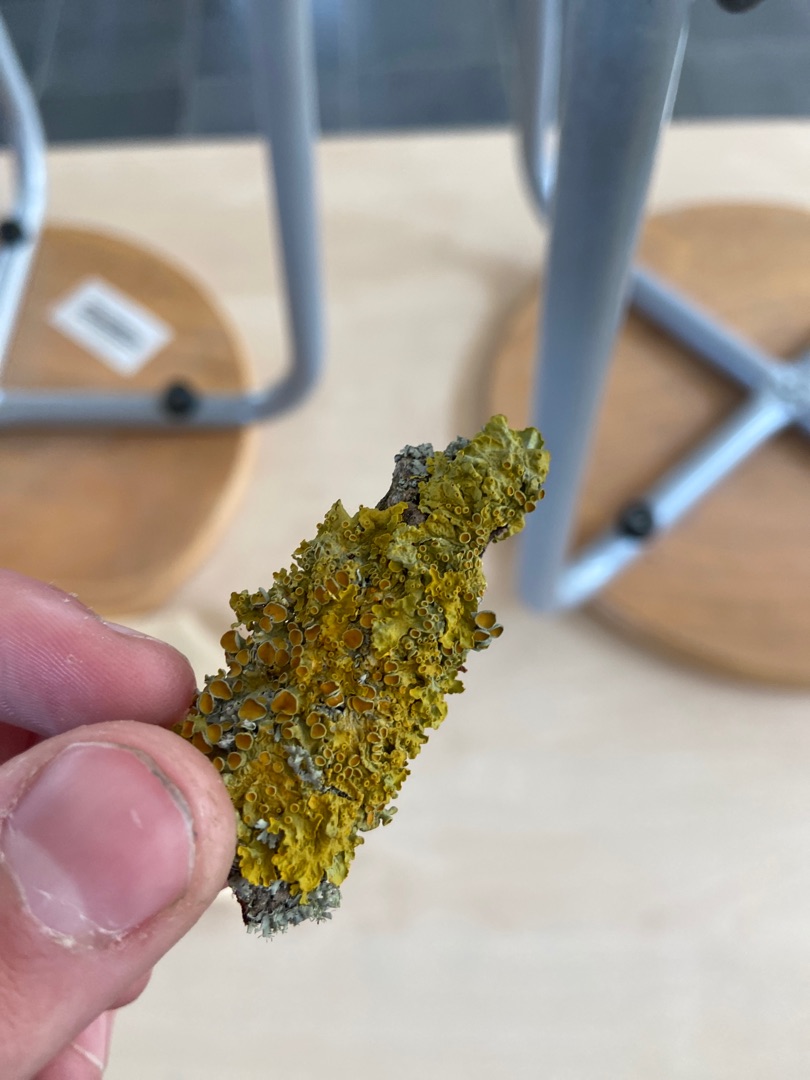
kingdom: Fungi
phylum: Ascomycota
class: Lecanoromycetes
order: Teloschistales
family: Teloschistaceae
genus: Xanthoria
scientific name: Xanthoria parietina
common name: Almindelig væggelav
